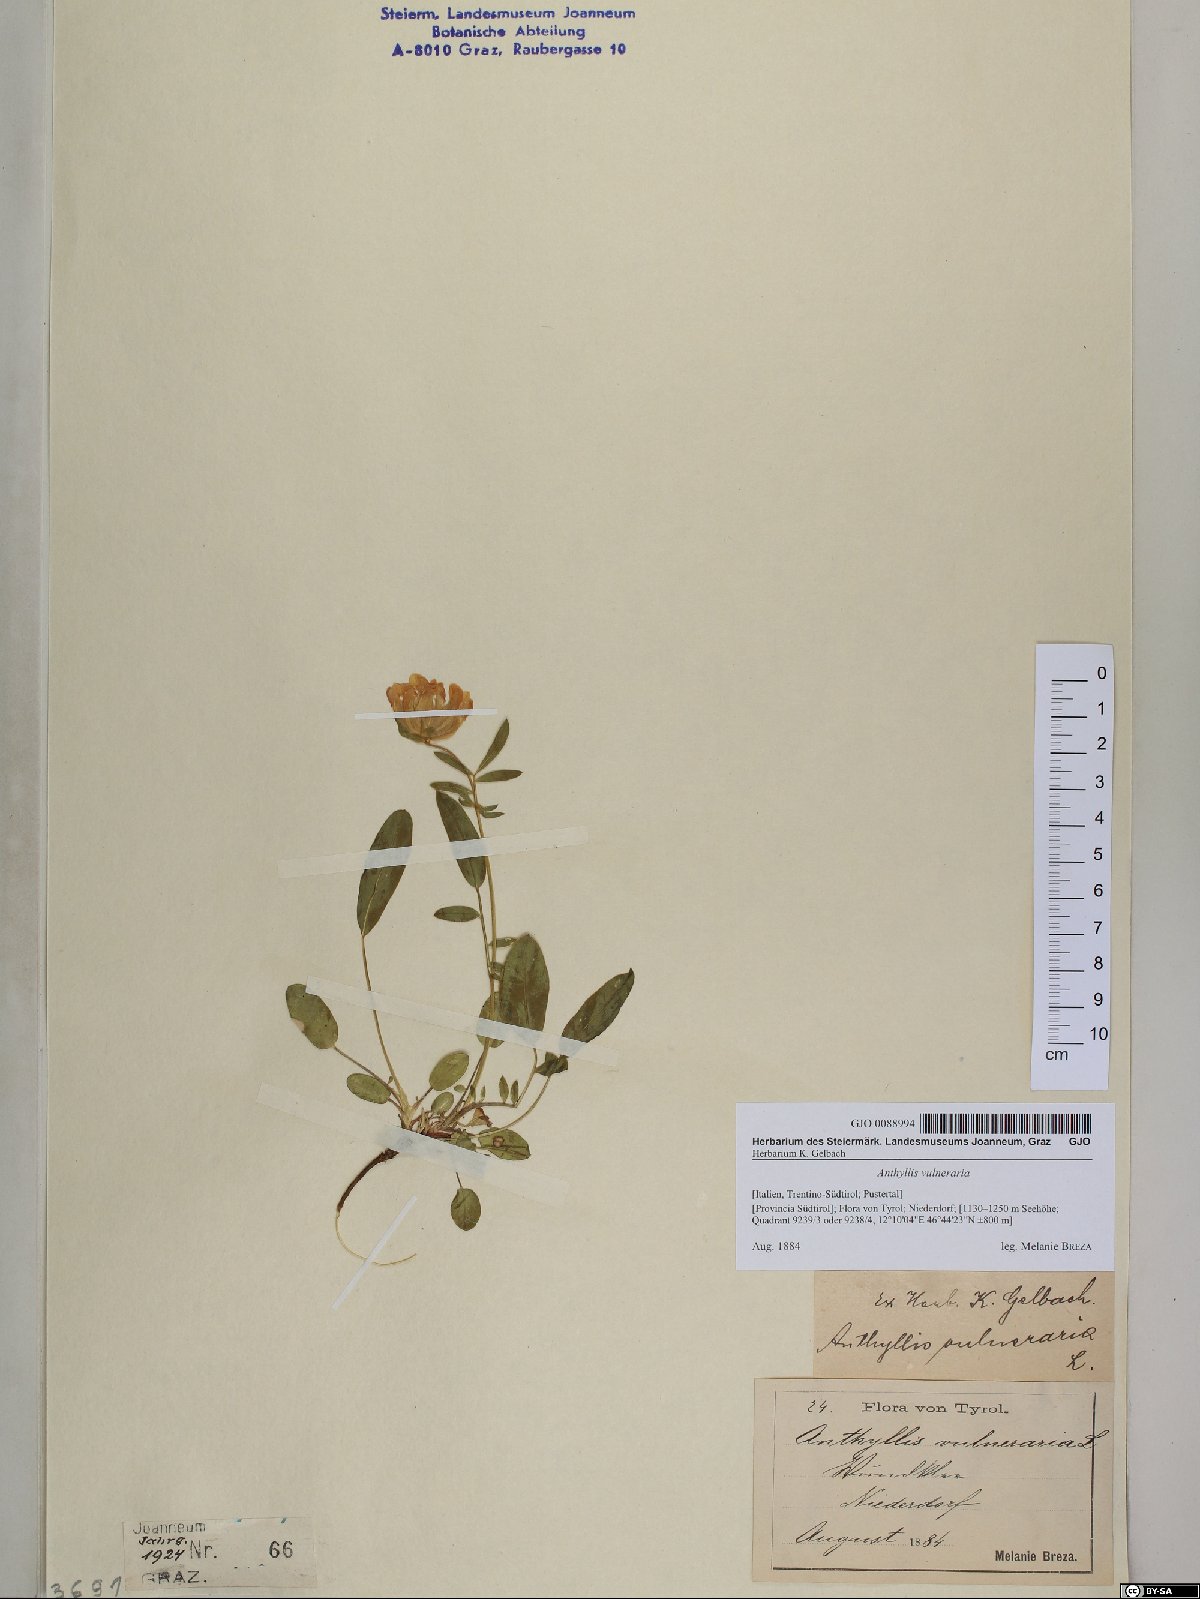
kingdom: Plantae
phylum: Tracheophyta
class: Magnoliopsida
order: Fabales
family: Fabaceae
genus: Anthyllis
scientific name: Anthyllis vulneraria
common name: Kidney vetch
